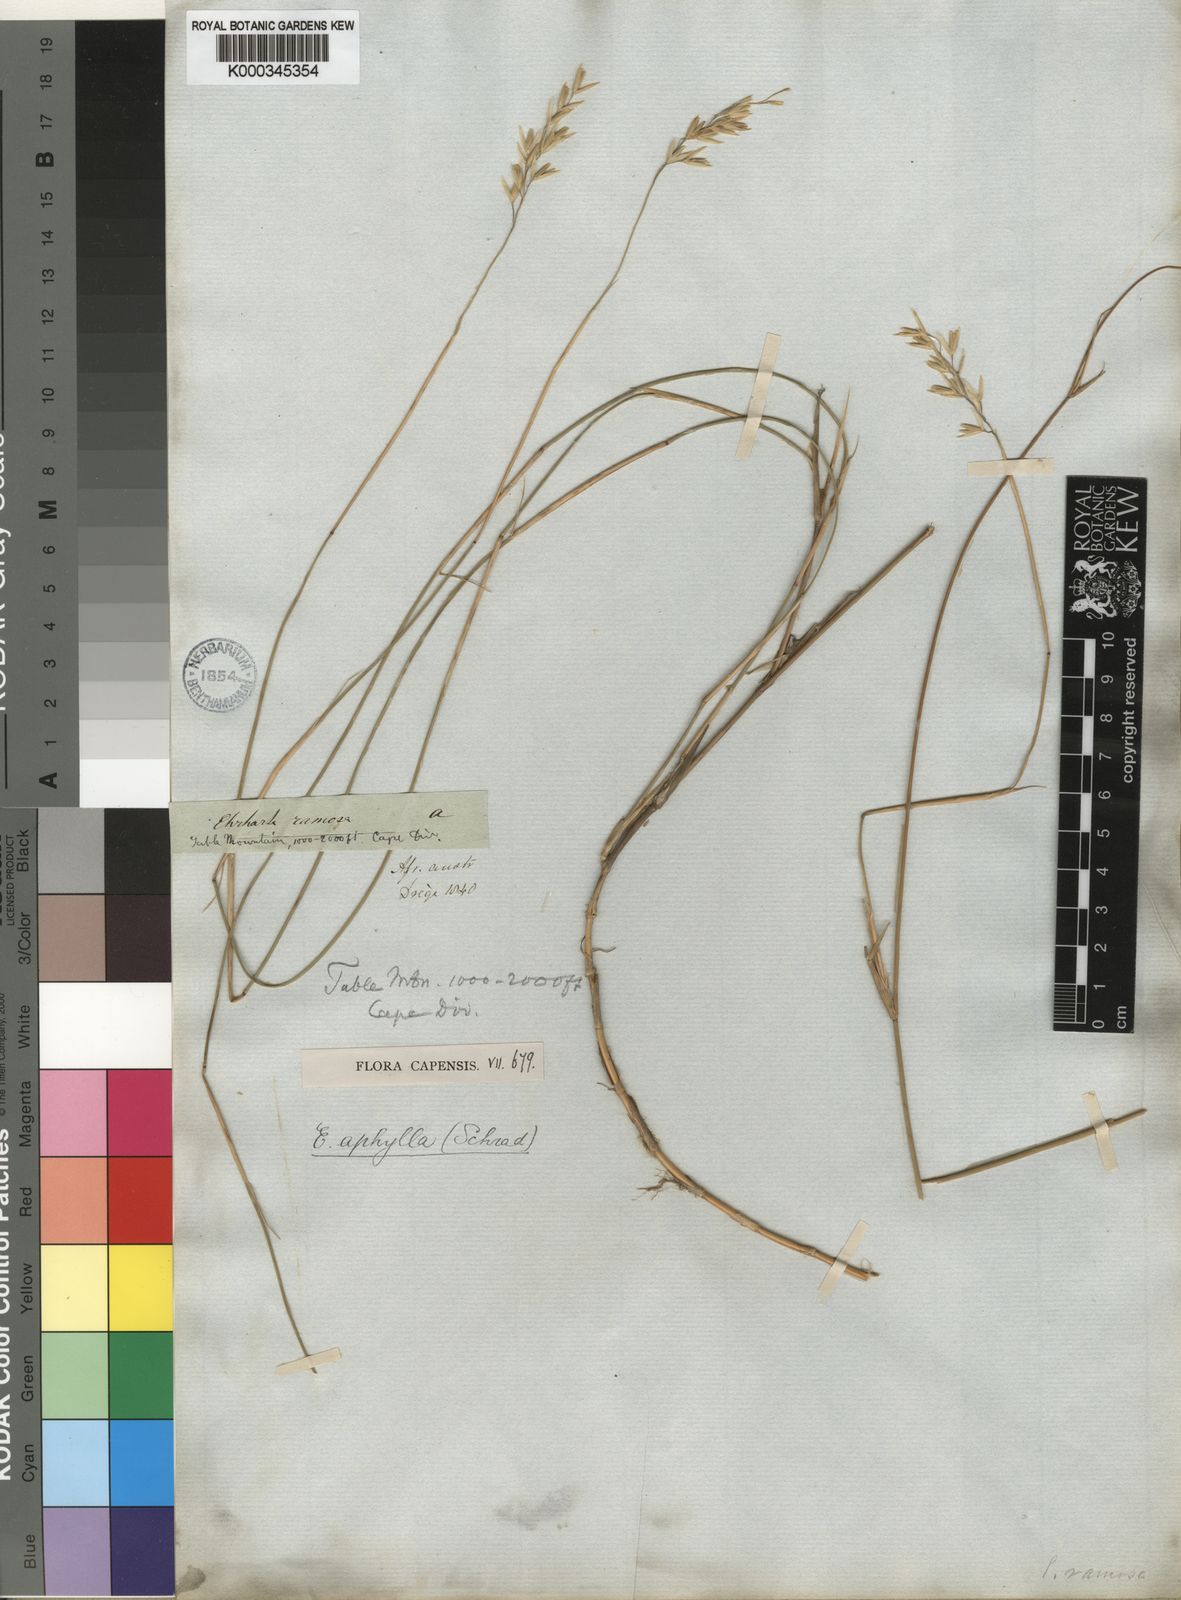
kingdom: Plantae
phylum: Tracheophyta
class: Liliopsida
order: Poales
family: Poaceae
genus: Ehrharta
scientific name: Ehrharta ramosa
